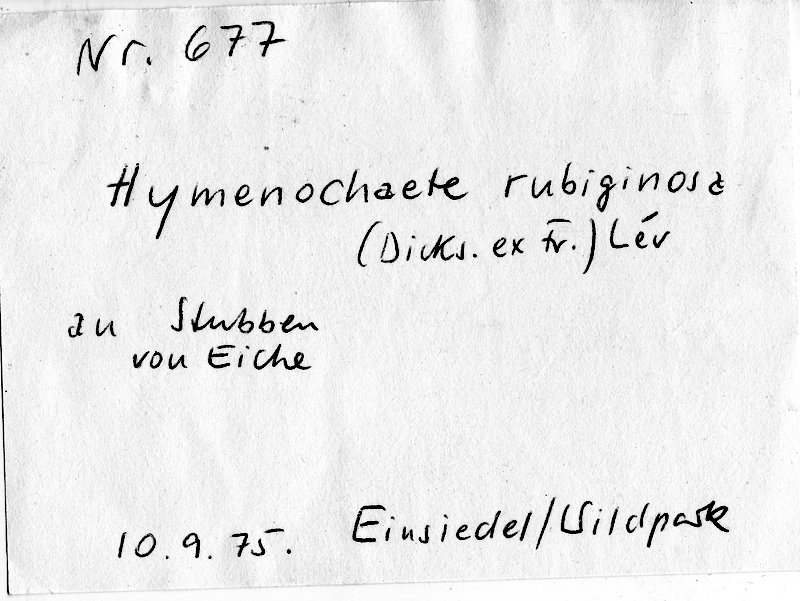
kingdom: Plantae
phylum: Tracheophyta
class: Magnoliopsida
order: Fagales
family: Fagaceae
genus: Quercus
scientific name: Quercus
